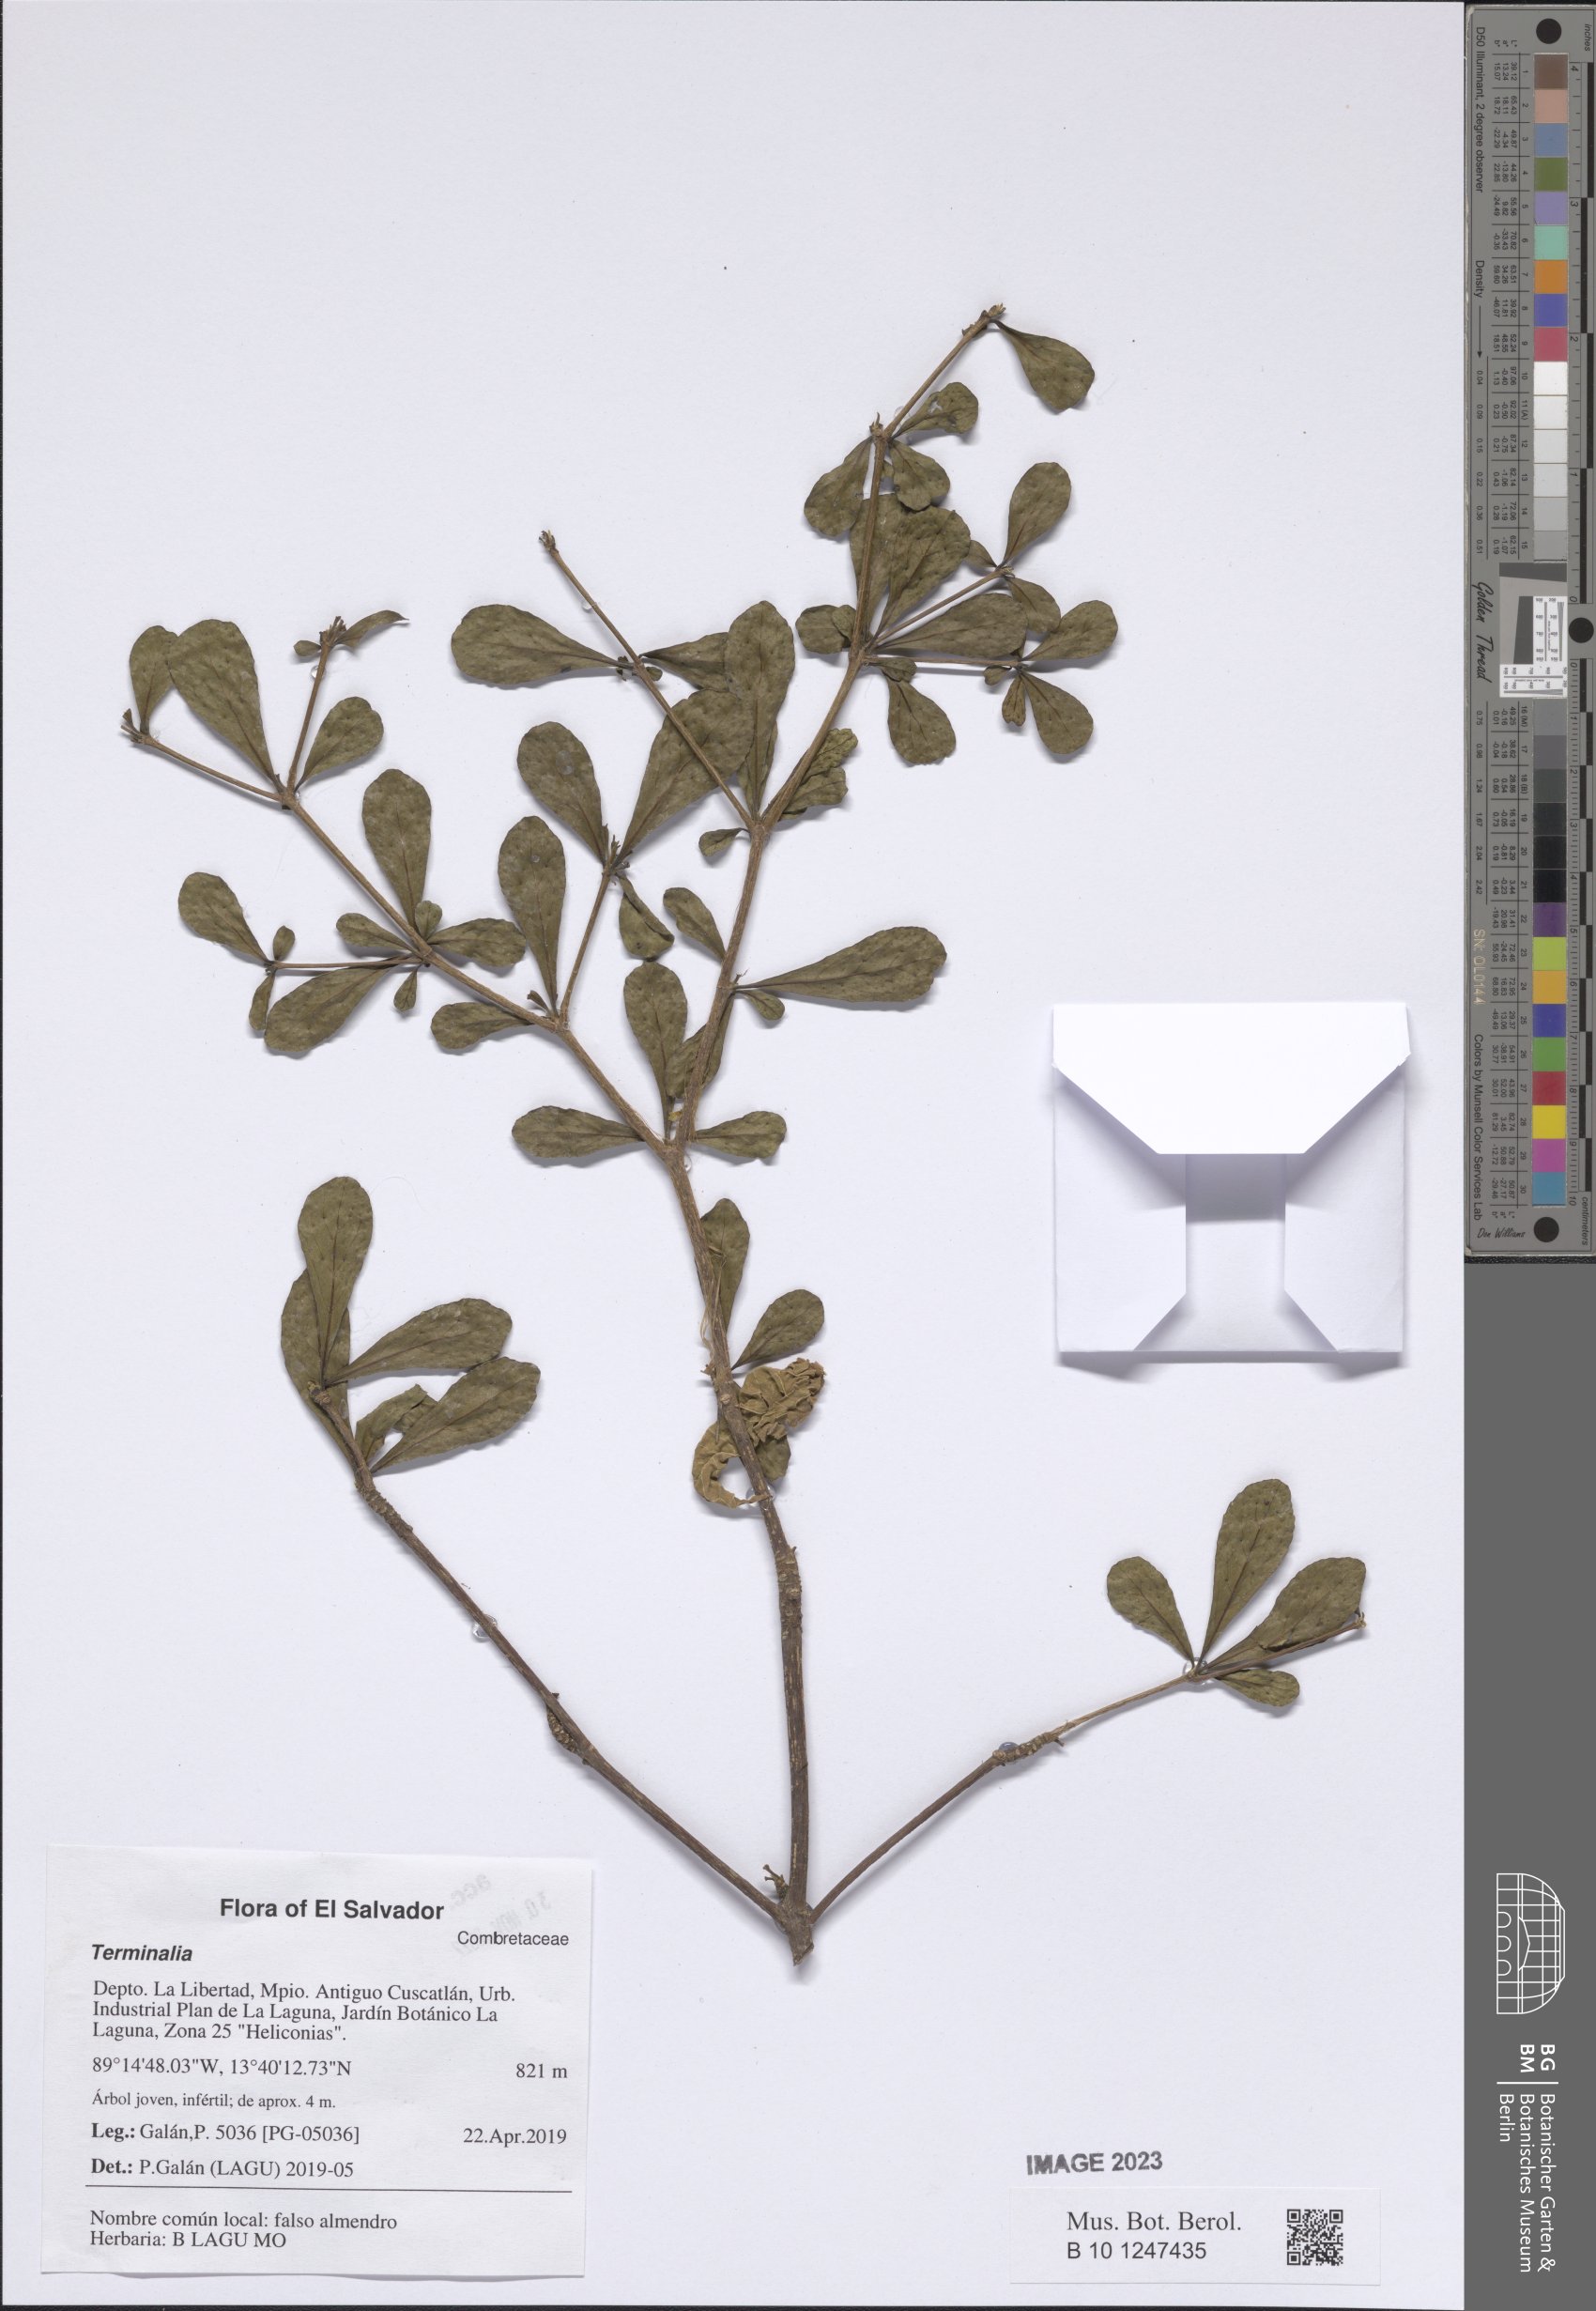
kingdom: Plantae
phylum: Tracheophyta
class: Magnoliopsida
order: Myrtales
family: Combretaceae
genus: Terminalia
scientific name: Terminalia
